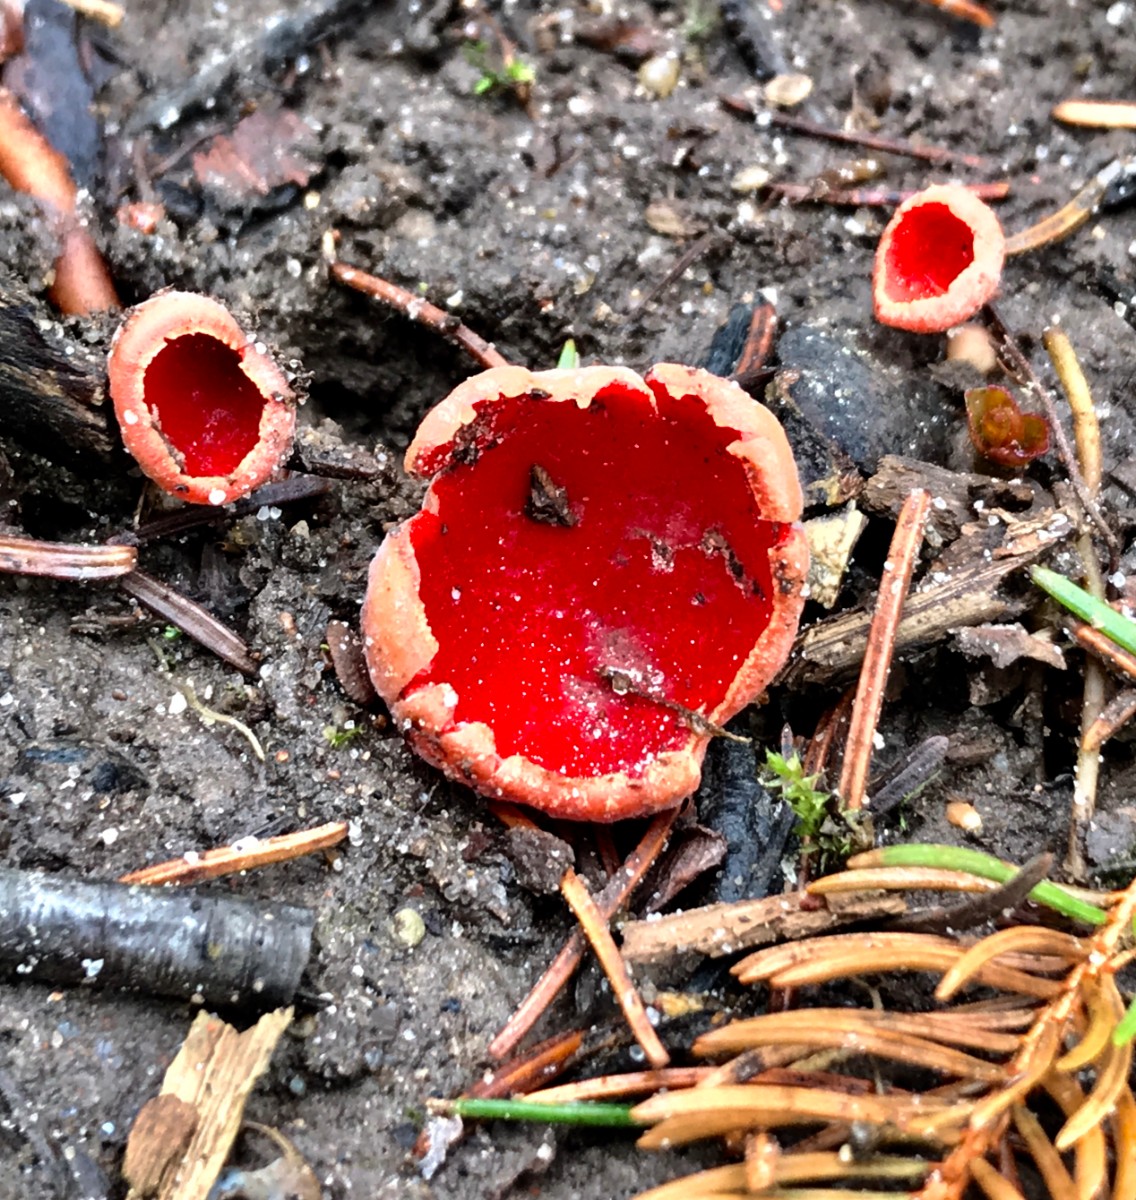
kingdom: Fungi
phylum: Ascomycota
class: Pezizomycetes
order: Pezizales
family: Sarcoscyphaceae
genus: Sarcoscypha
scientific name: Sarcoscypha austriaca
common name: krølhåret pragtbæger
